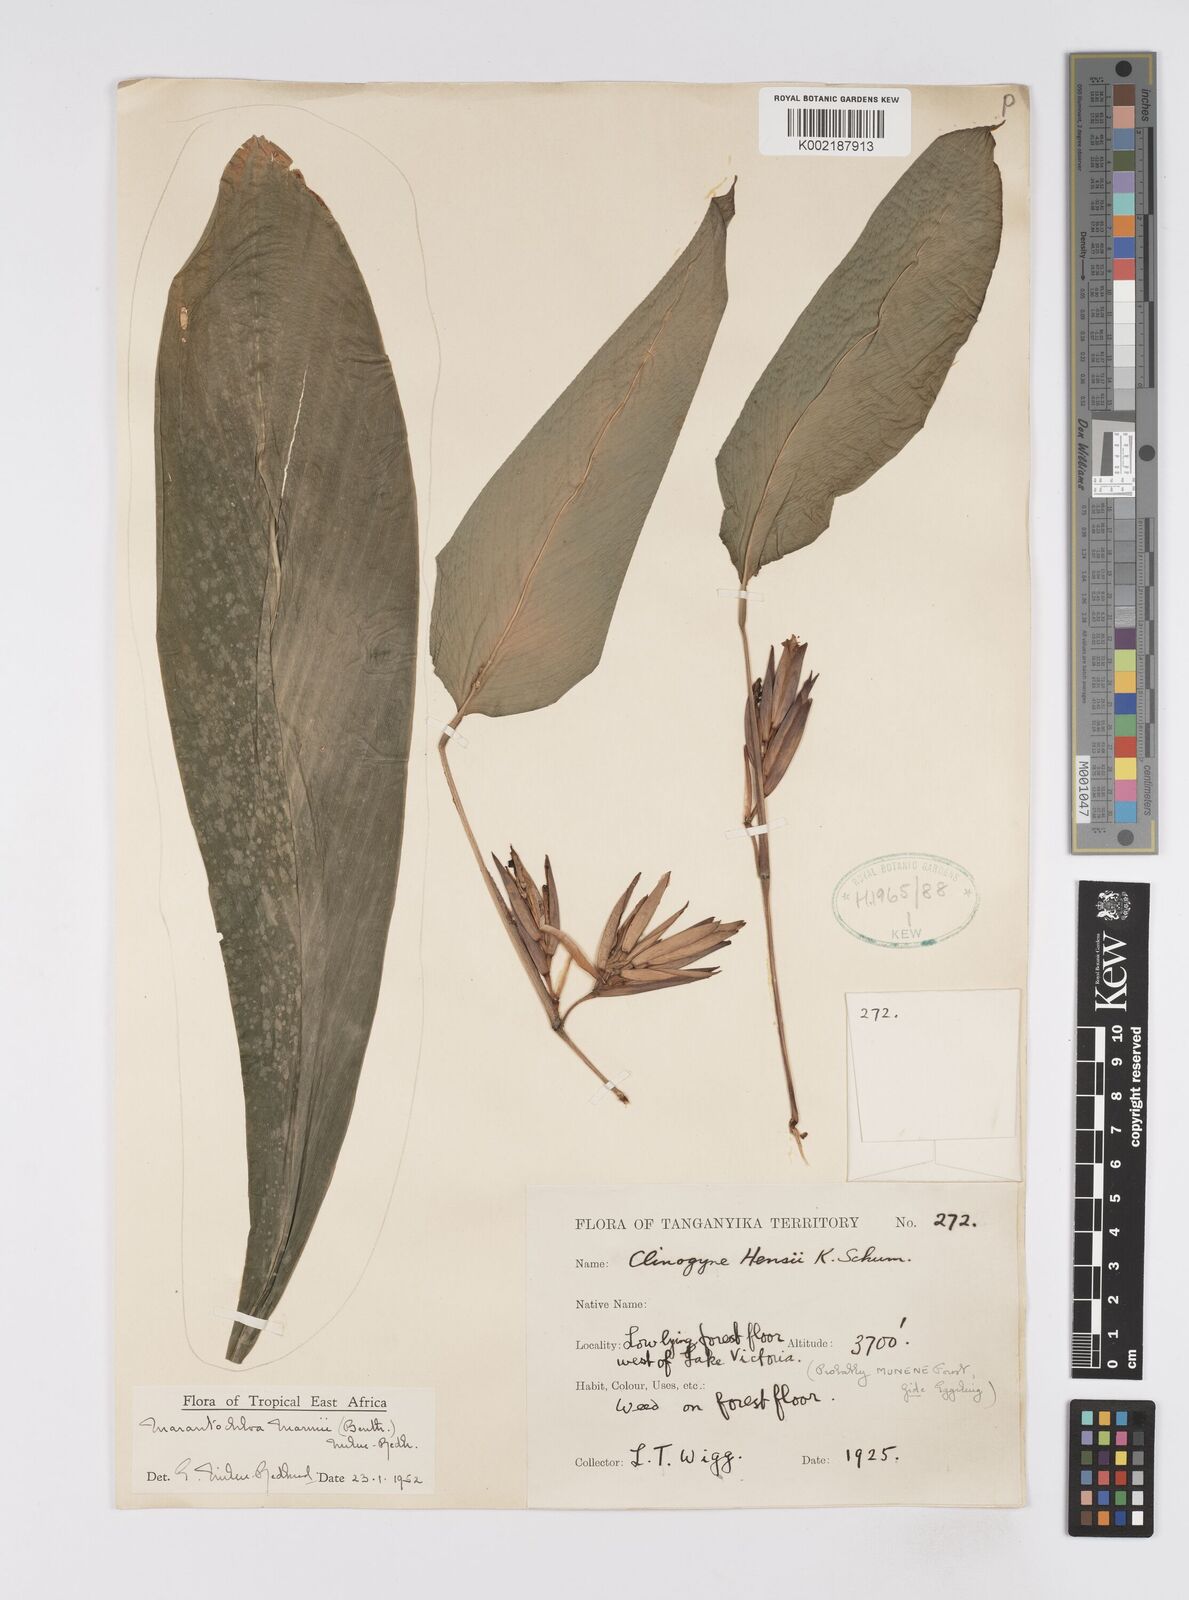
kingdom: Plantae
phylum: Tracheophyta
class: Liliopsida
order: Zingiberales
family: Marantaceae
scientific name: Marantaceae
